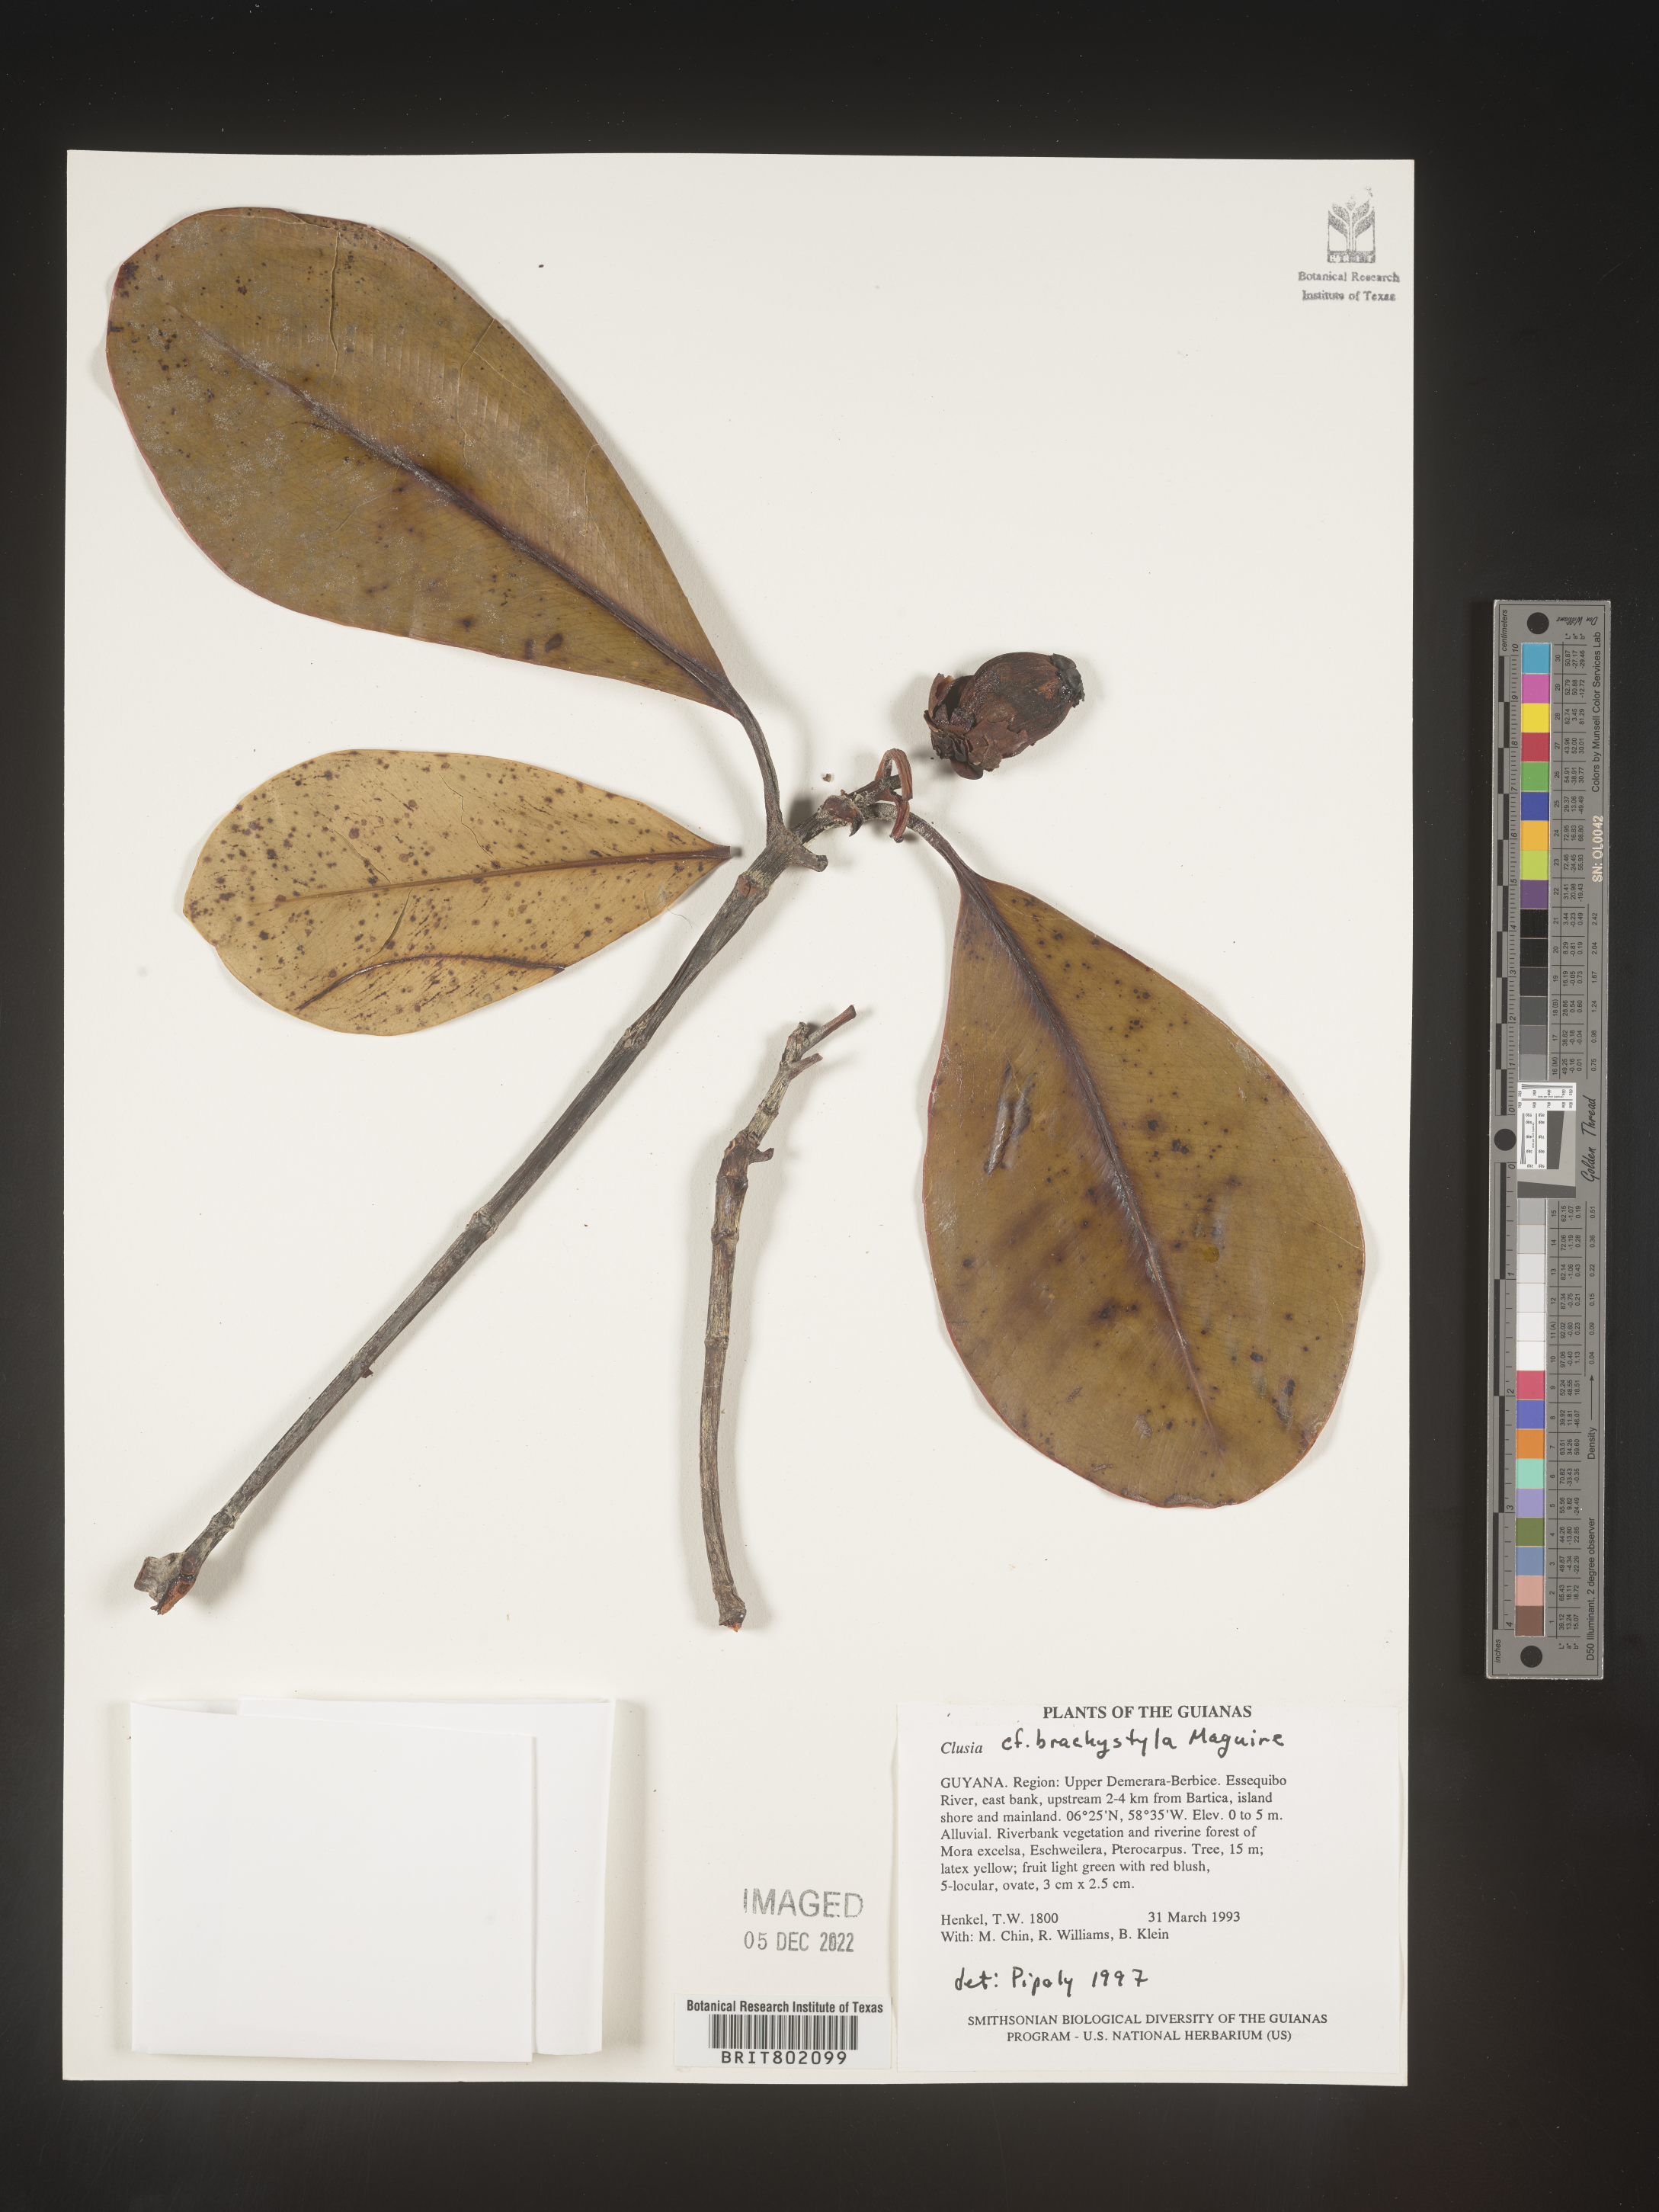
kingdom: Plantae
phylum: Tracheophyta
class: Magnoliopsida
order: Malpighiales
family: Clusiaceae
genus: Clusia
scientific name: Clusia brachystyla
